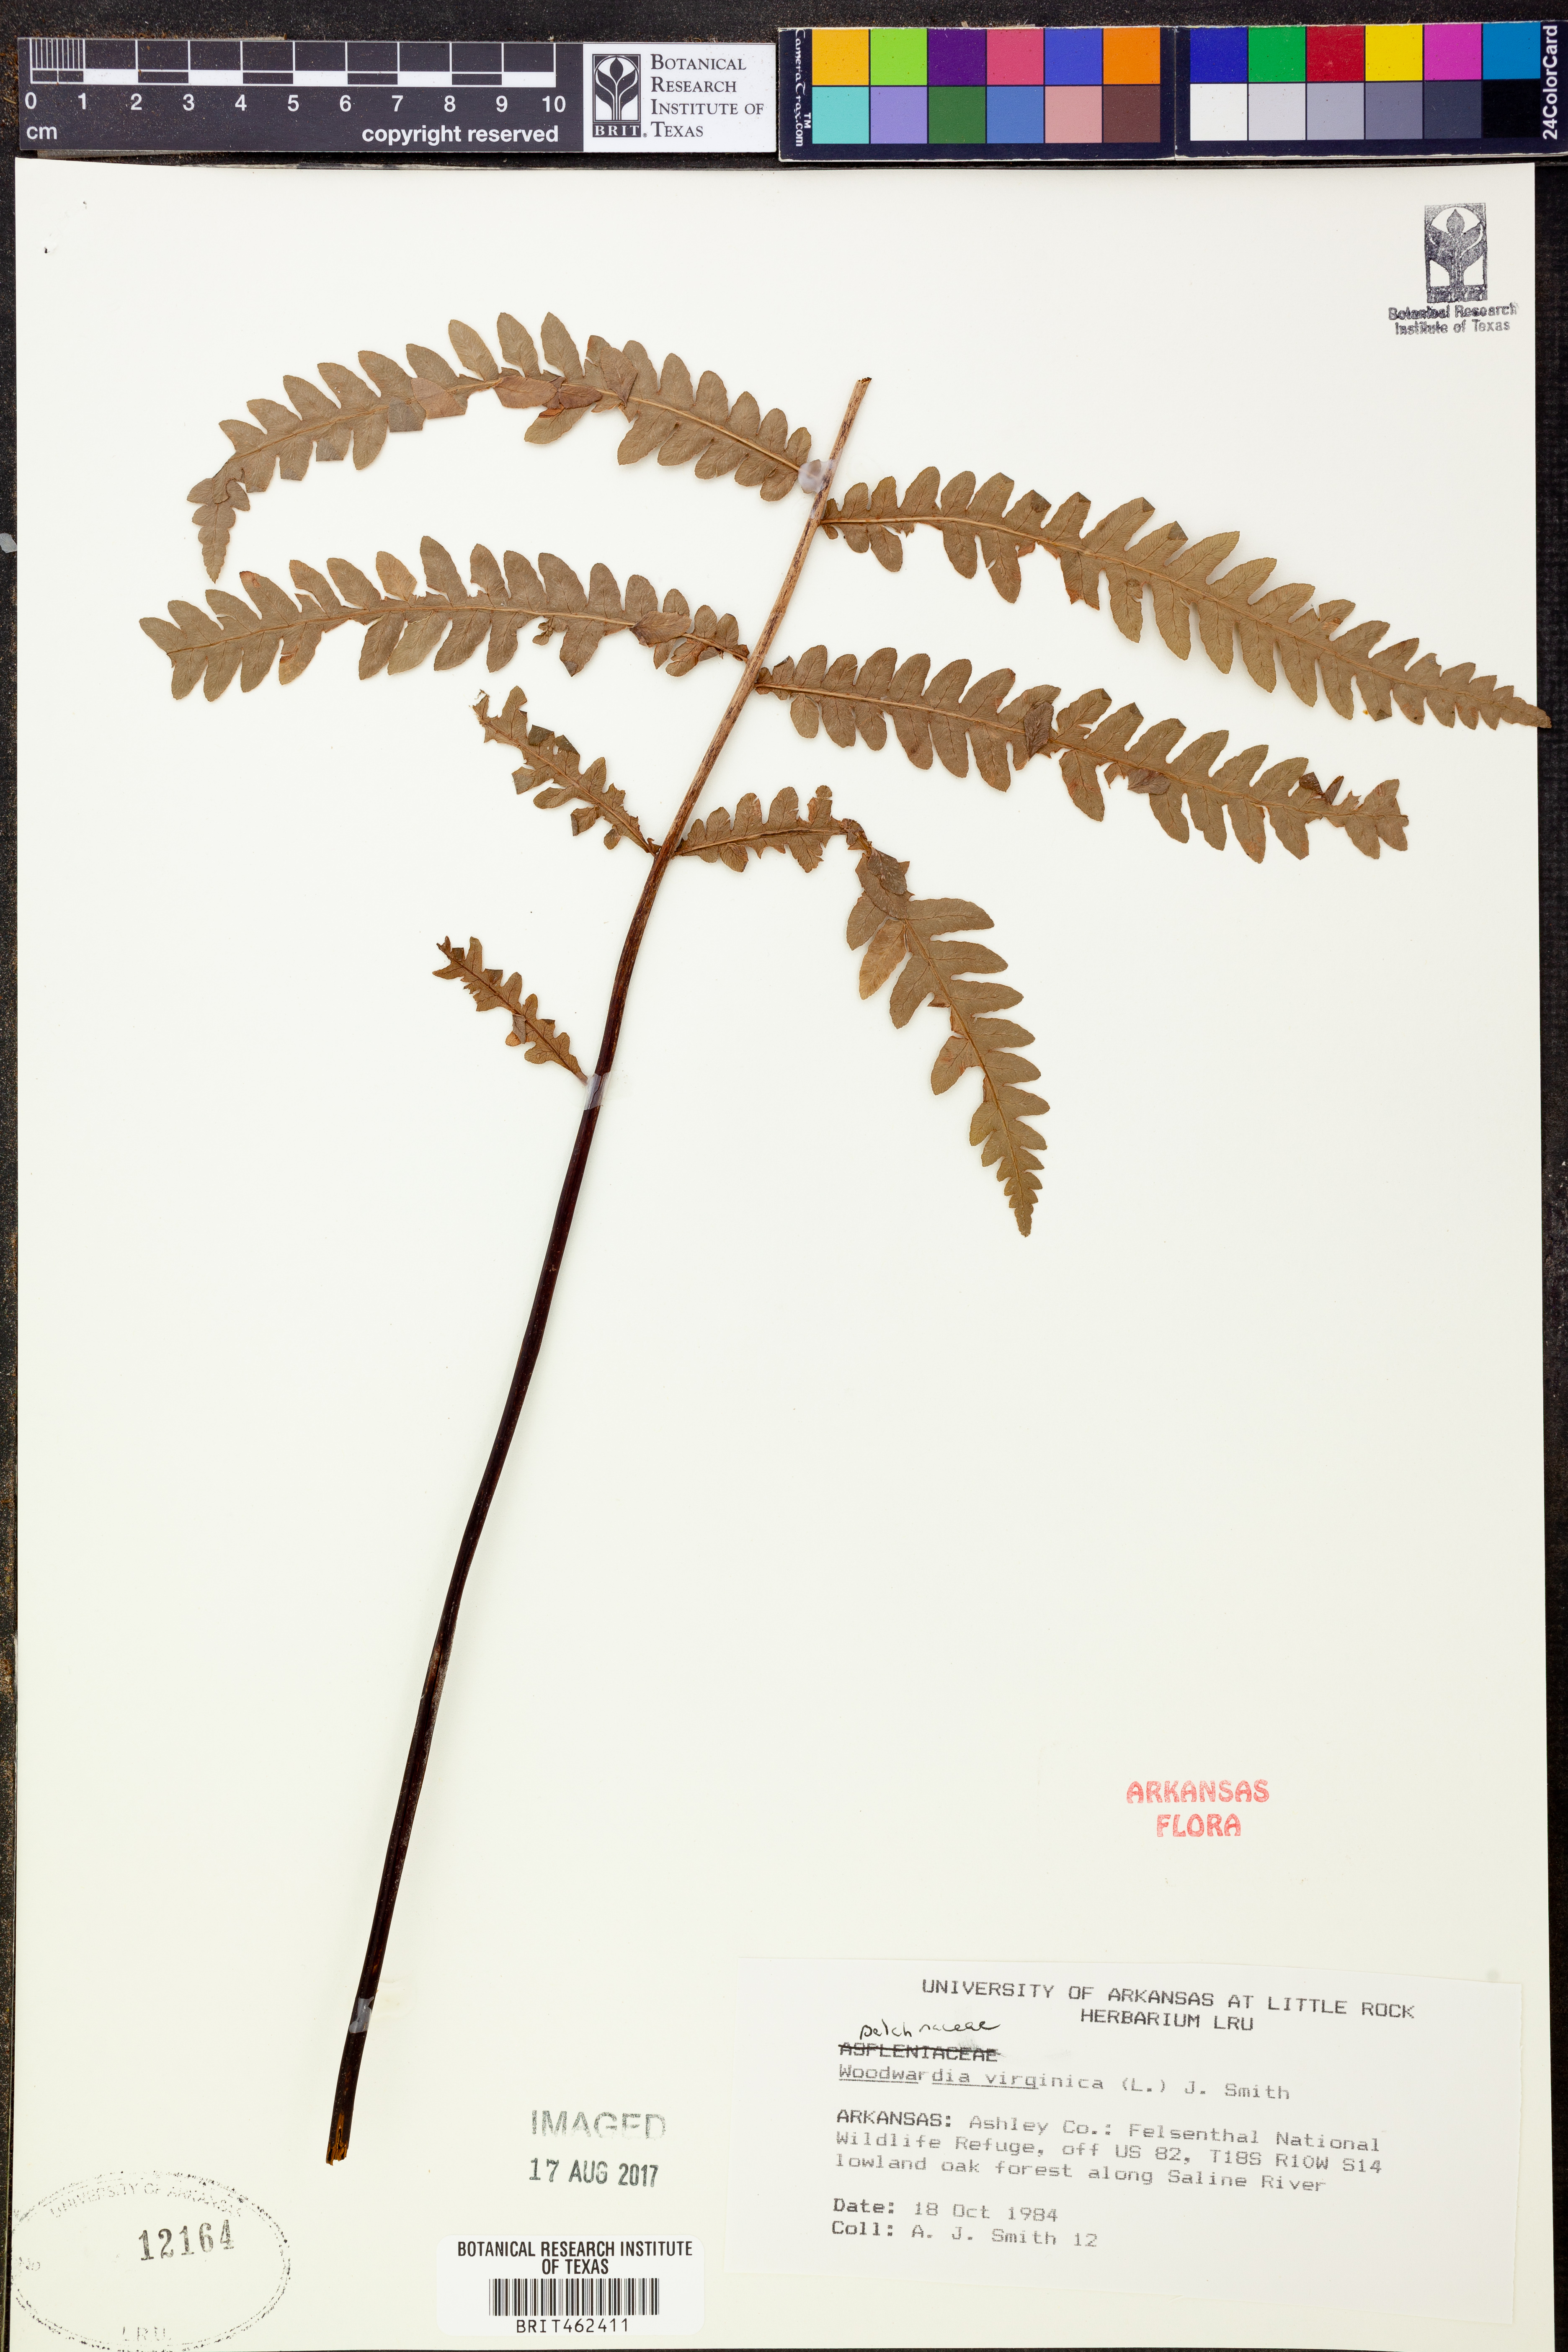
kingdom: Plantae
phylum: Tracheophyta
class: Polypodiopsida
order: Polypodiales
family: Blechnaceae
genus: Anchistea
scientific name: Anchistea virginica
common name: Virginia chain fern
